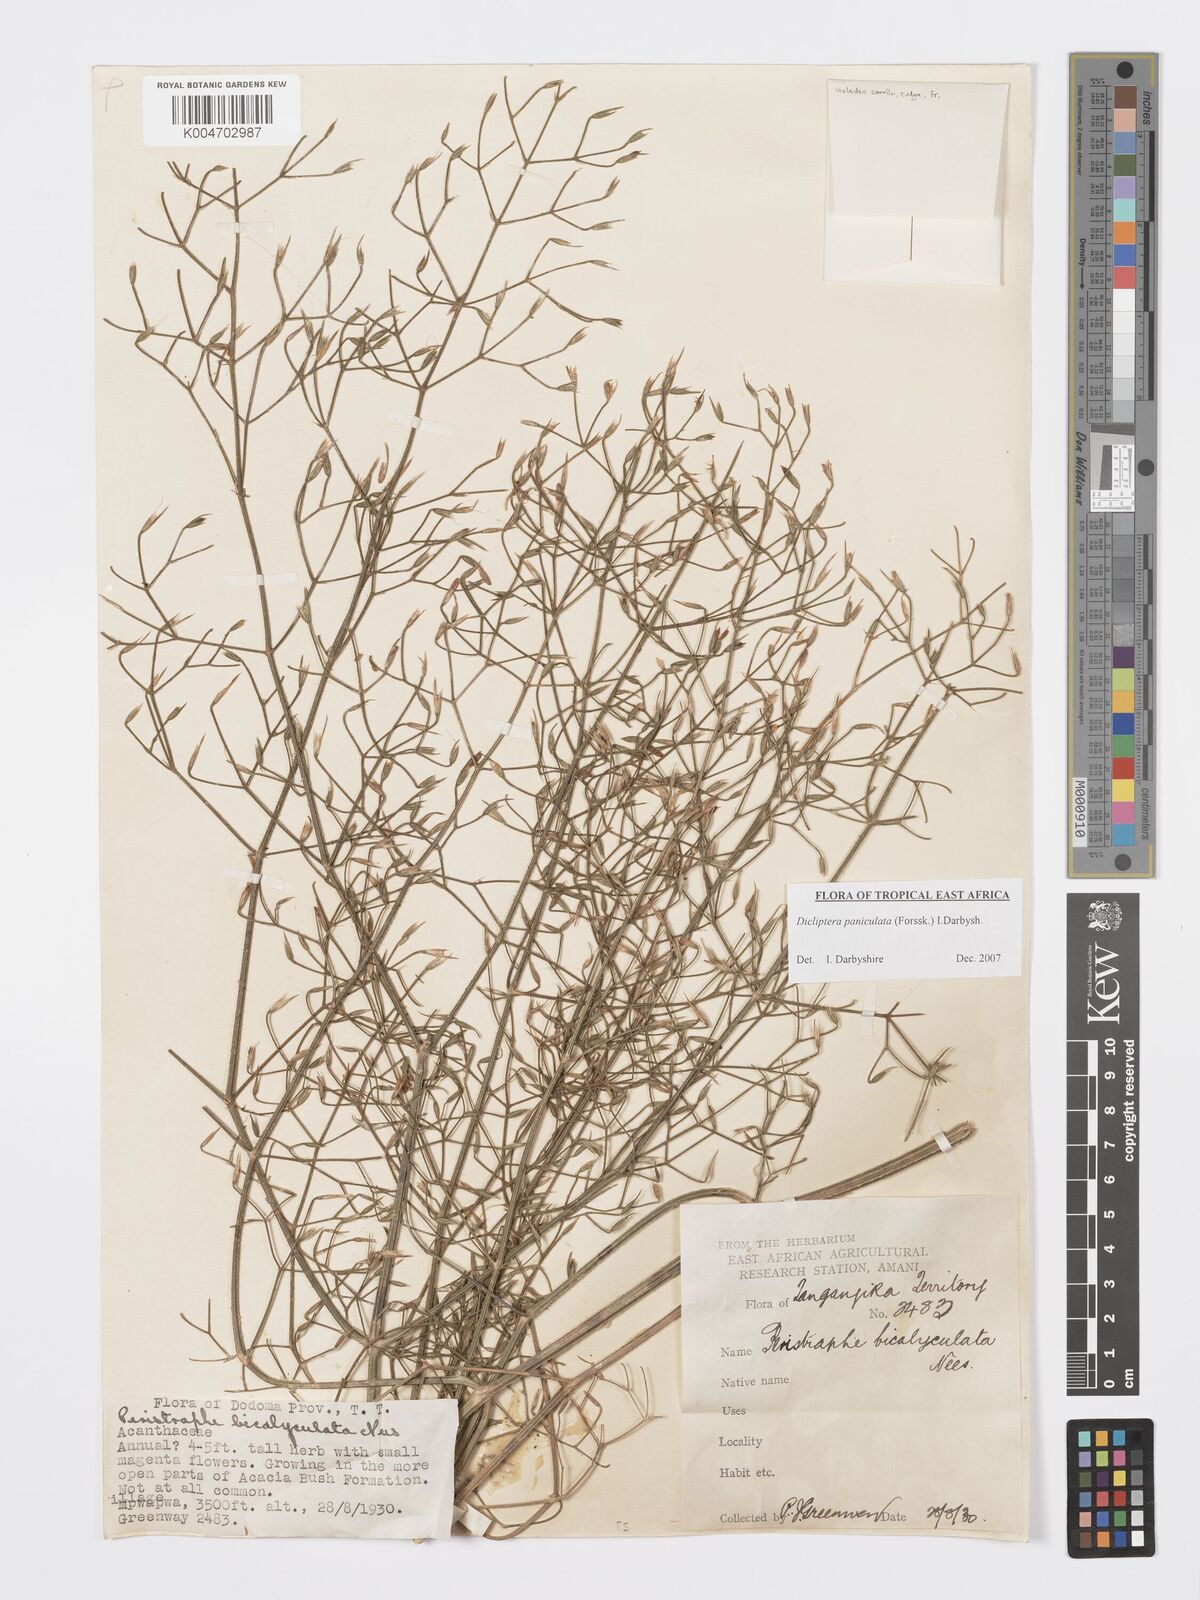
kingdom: Plantae
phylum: Tracheophyta
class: Magnoliopsida
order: Lamiales
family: Acanthaceae
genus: Dicliptera
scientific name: Dicliptera paniculata
